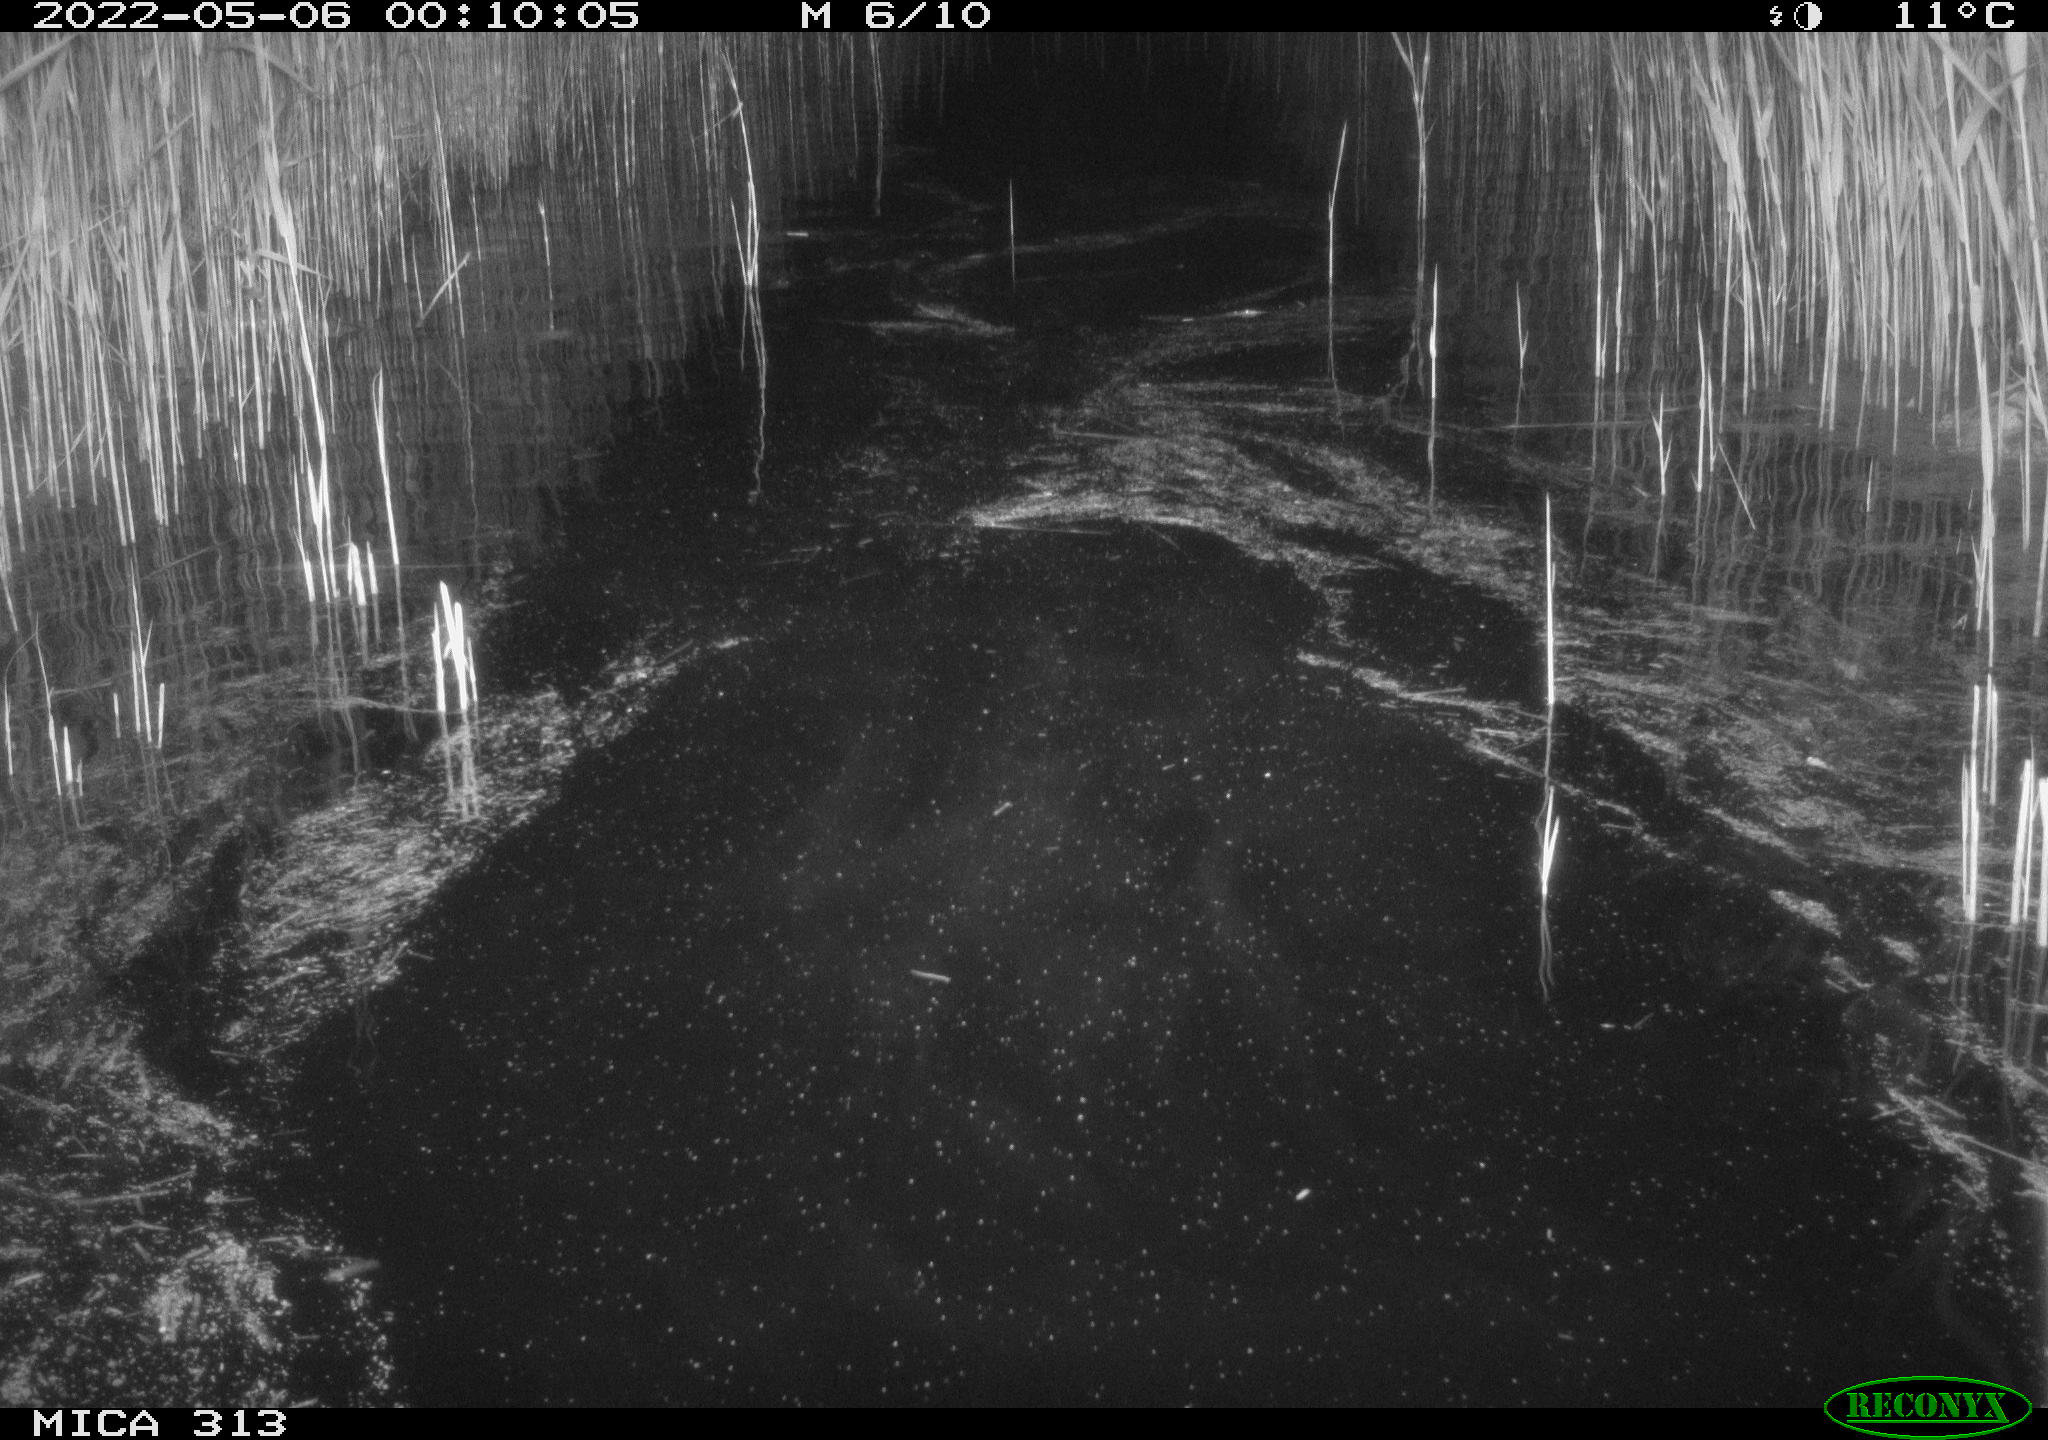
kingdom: Animalia
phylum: Chordata
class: Aves
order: Anseriformes
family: Anatidae
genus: Anas
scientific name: Anas platyrhynchos
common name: Mallard
